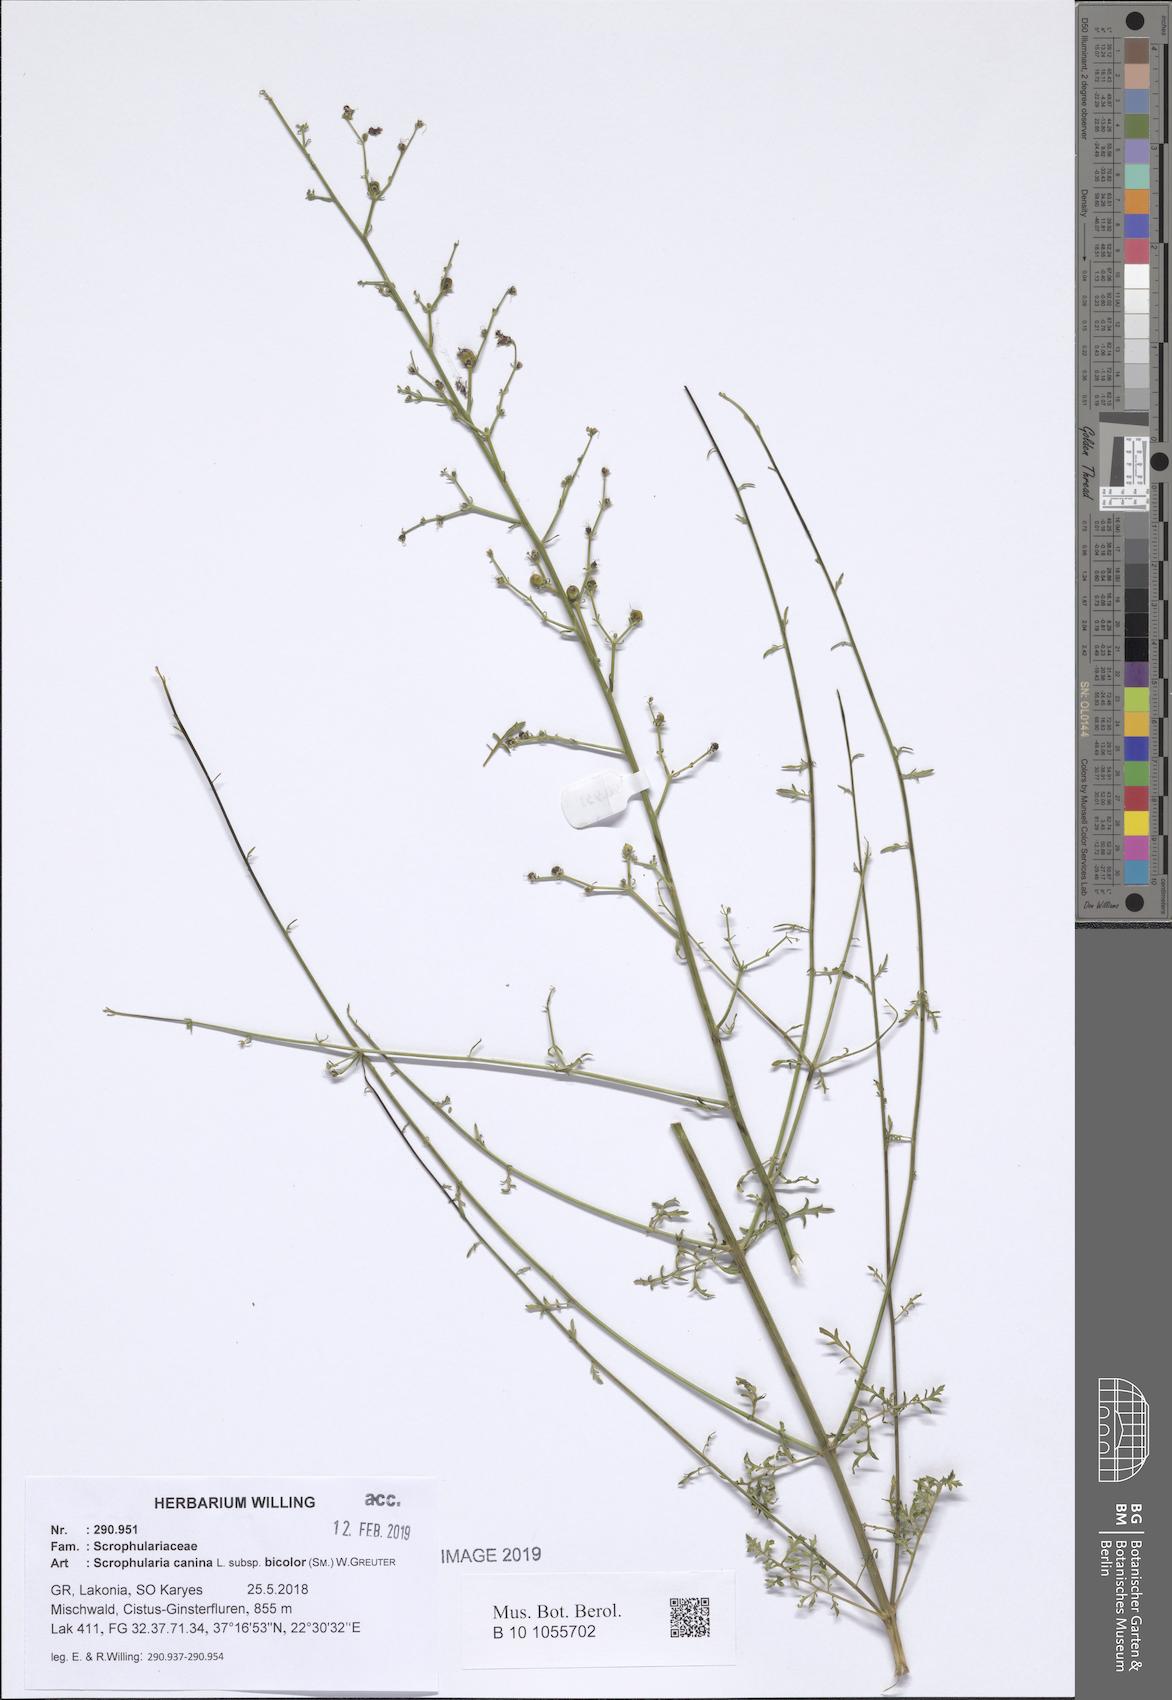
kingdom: Plantae
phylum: Tracheophyta
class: Magnoliopsida
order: Lamiales
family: Scrophulariaceae
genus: Scrophularia
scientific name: Scrophularia canina
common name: French figwort
